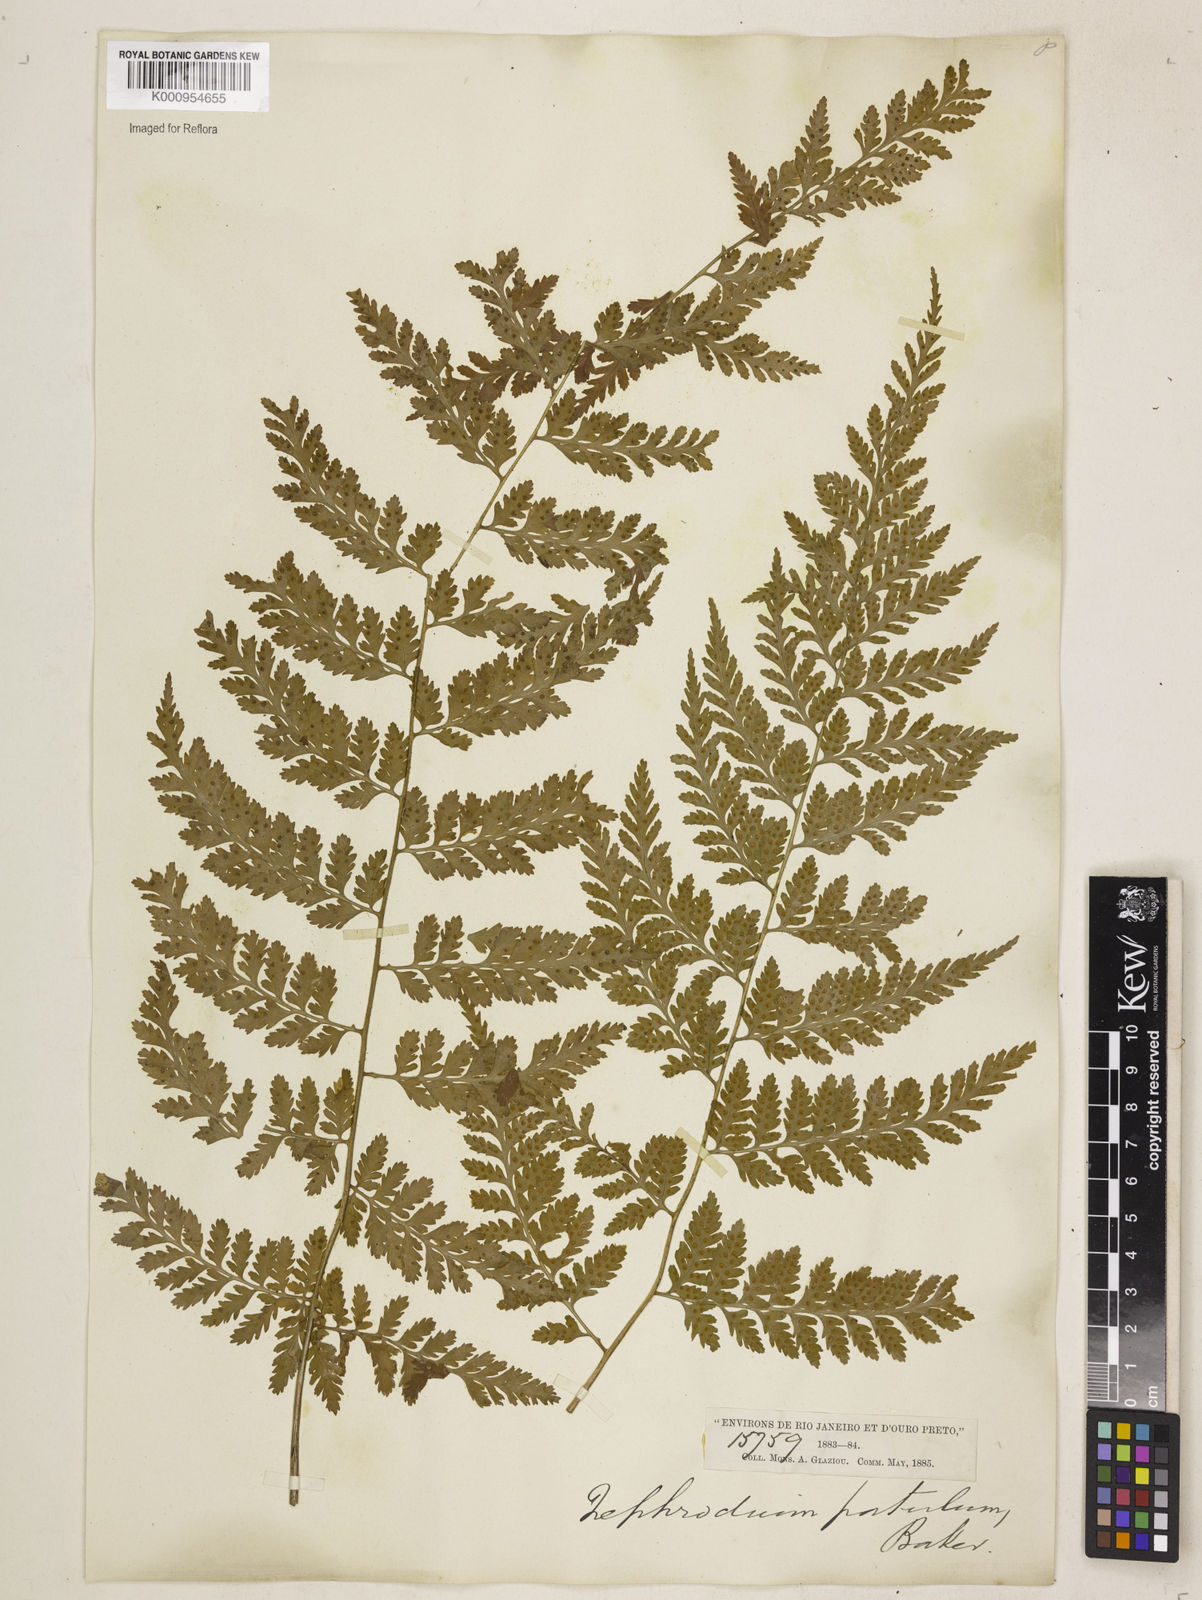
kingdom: Plantae
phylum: Tracheophyta
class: Polypodiopsida
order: Polypodiales
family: Dryopteridaceae
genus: Dryopteris
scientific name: Dryopteris patula
